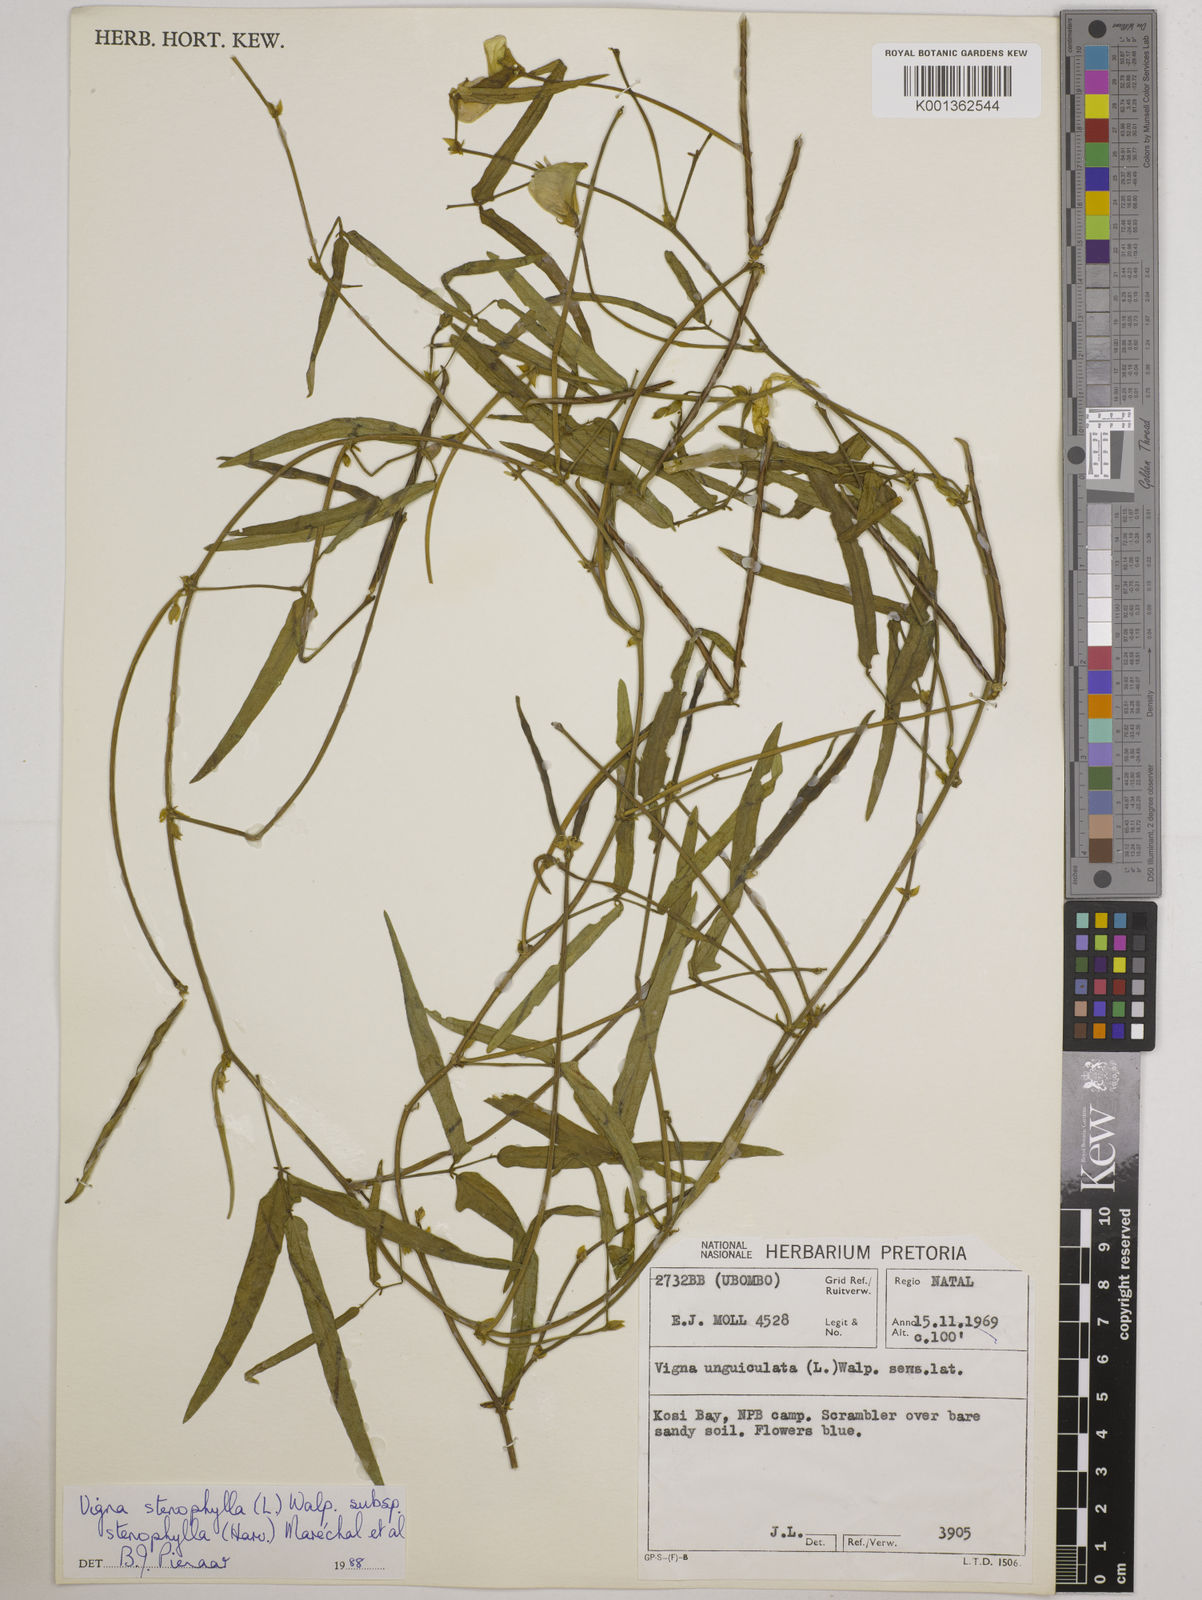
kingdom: Plantae
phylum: Tracheophyta
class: Magnoliopsida
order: Fabales
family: Fabaceae
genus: Vigna
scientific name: Vigna
